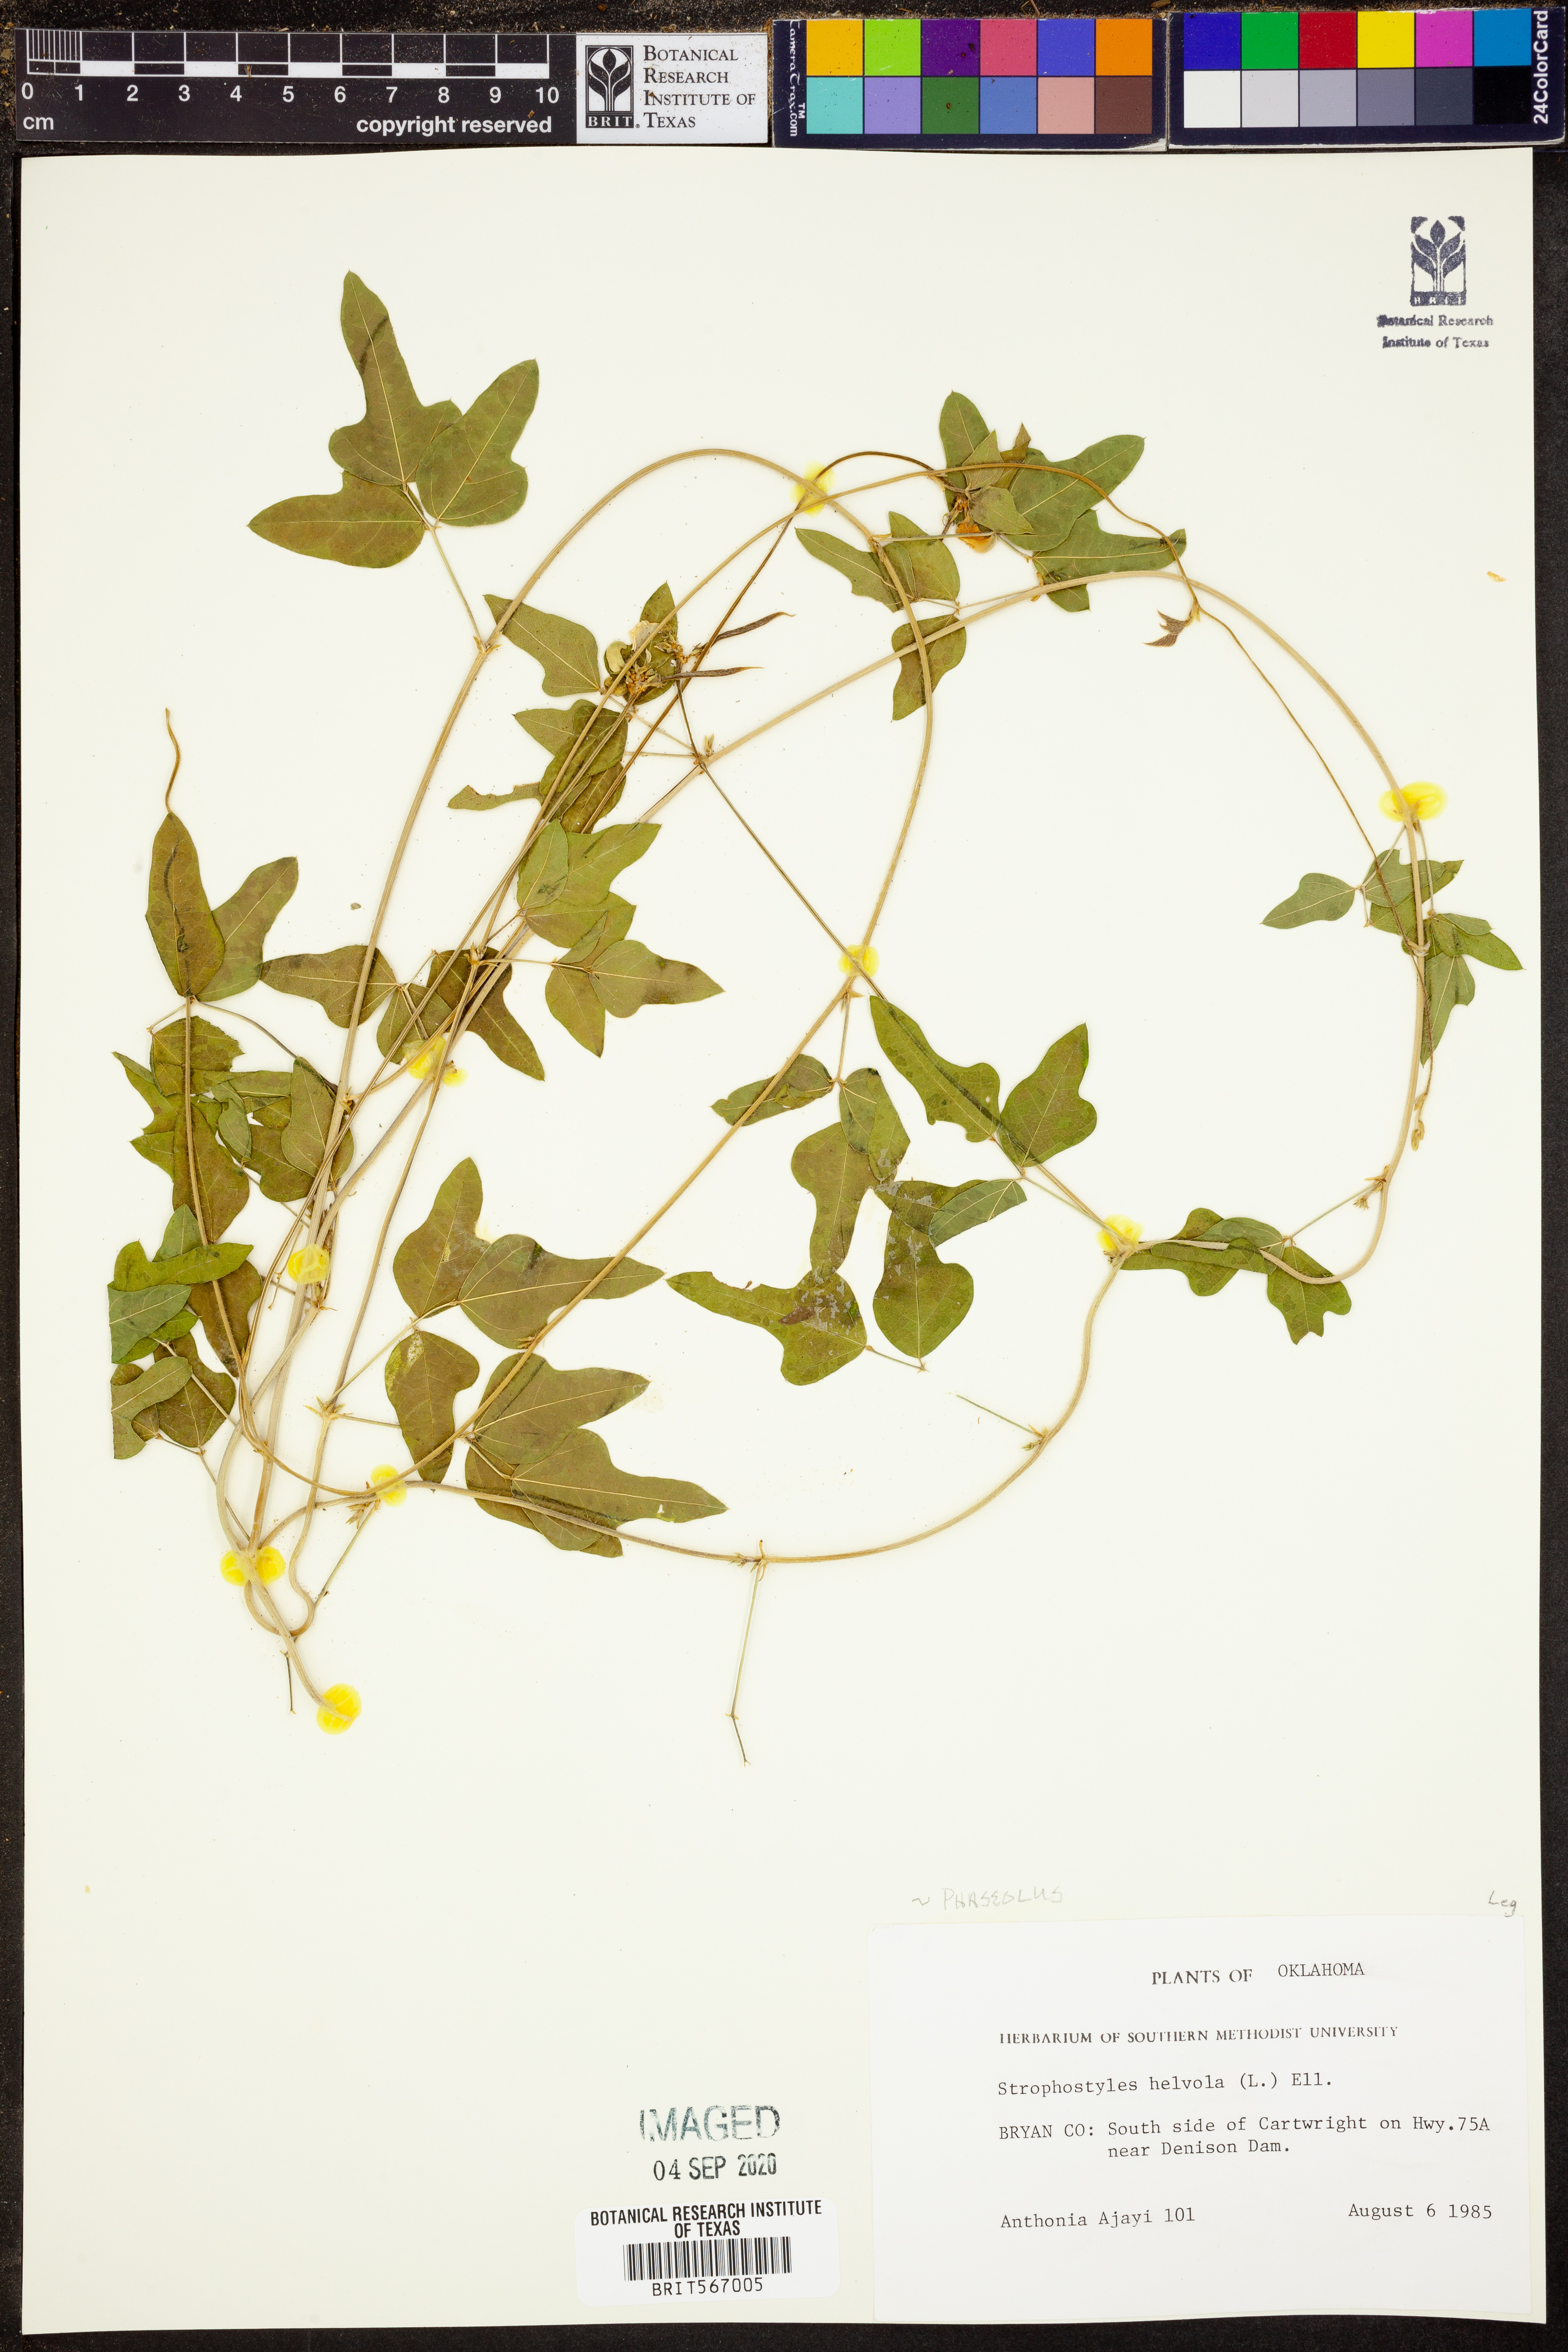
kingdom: Plantae
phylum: Tracheophyta
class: Magnoliopsida
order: Fabales
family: Fabaceae
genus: Strophostyles
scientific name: Strophostyles helvola
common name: Trailing wild bean
